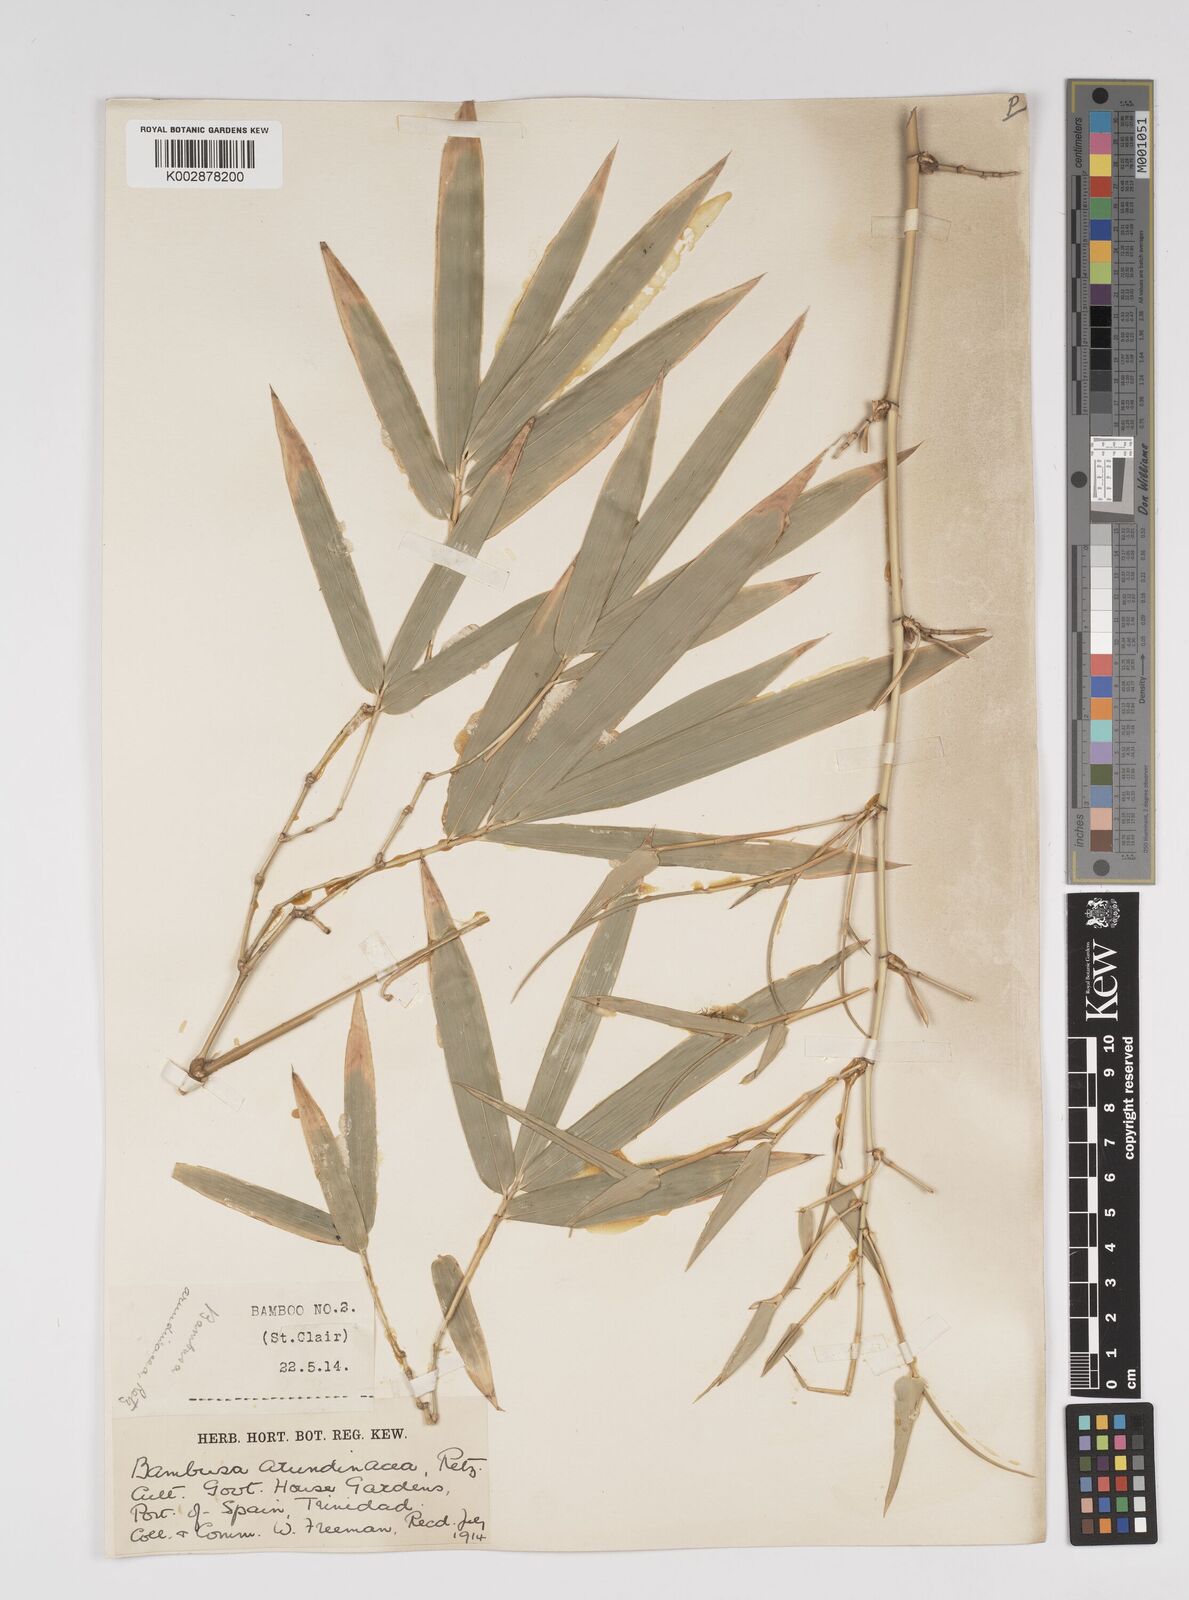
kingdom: Plantae
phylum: Tracheophyta
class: Liliopsida
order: Poales
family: Poaceae
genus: Bambusa
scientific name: Bambusa bambos
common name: Indian thorny bamboo
